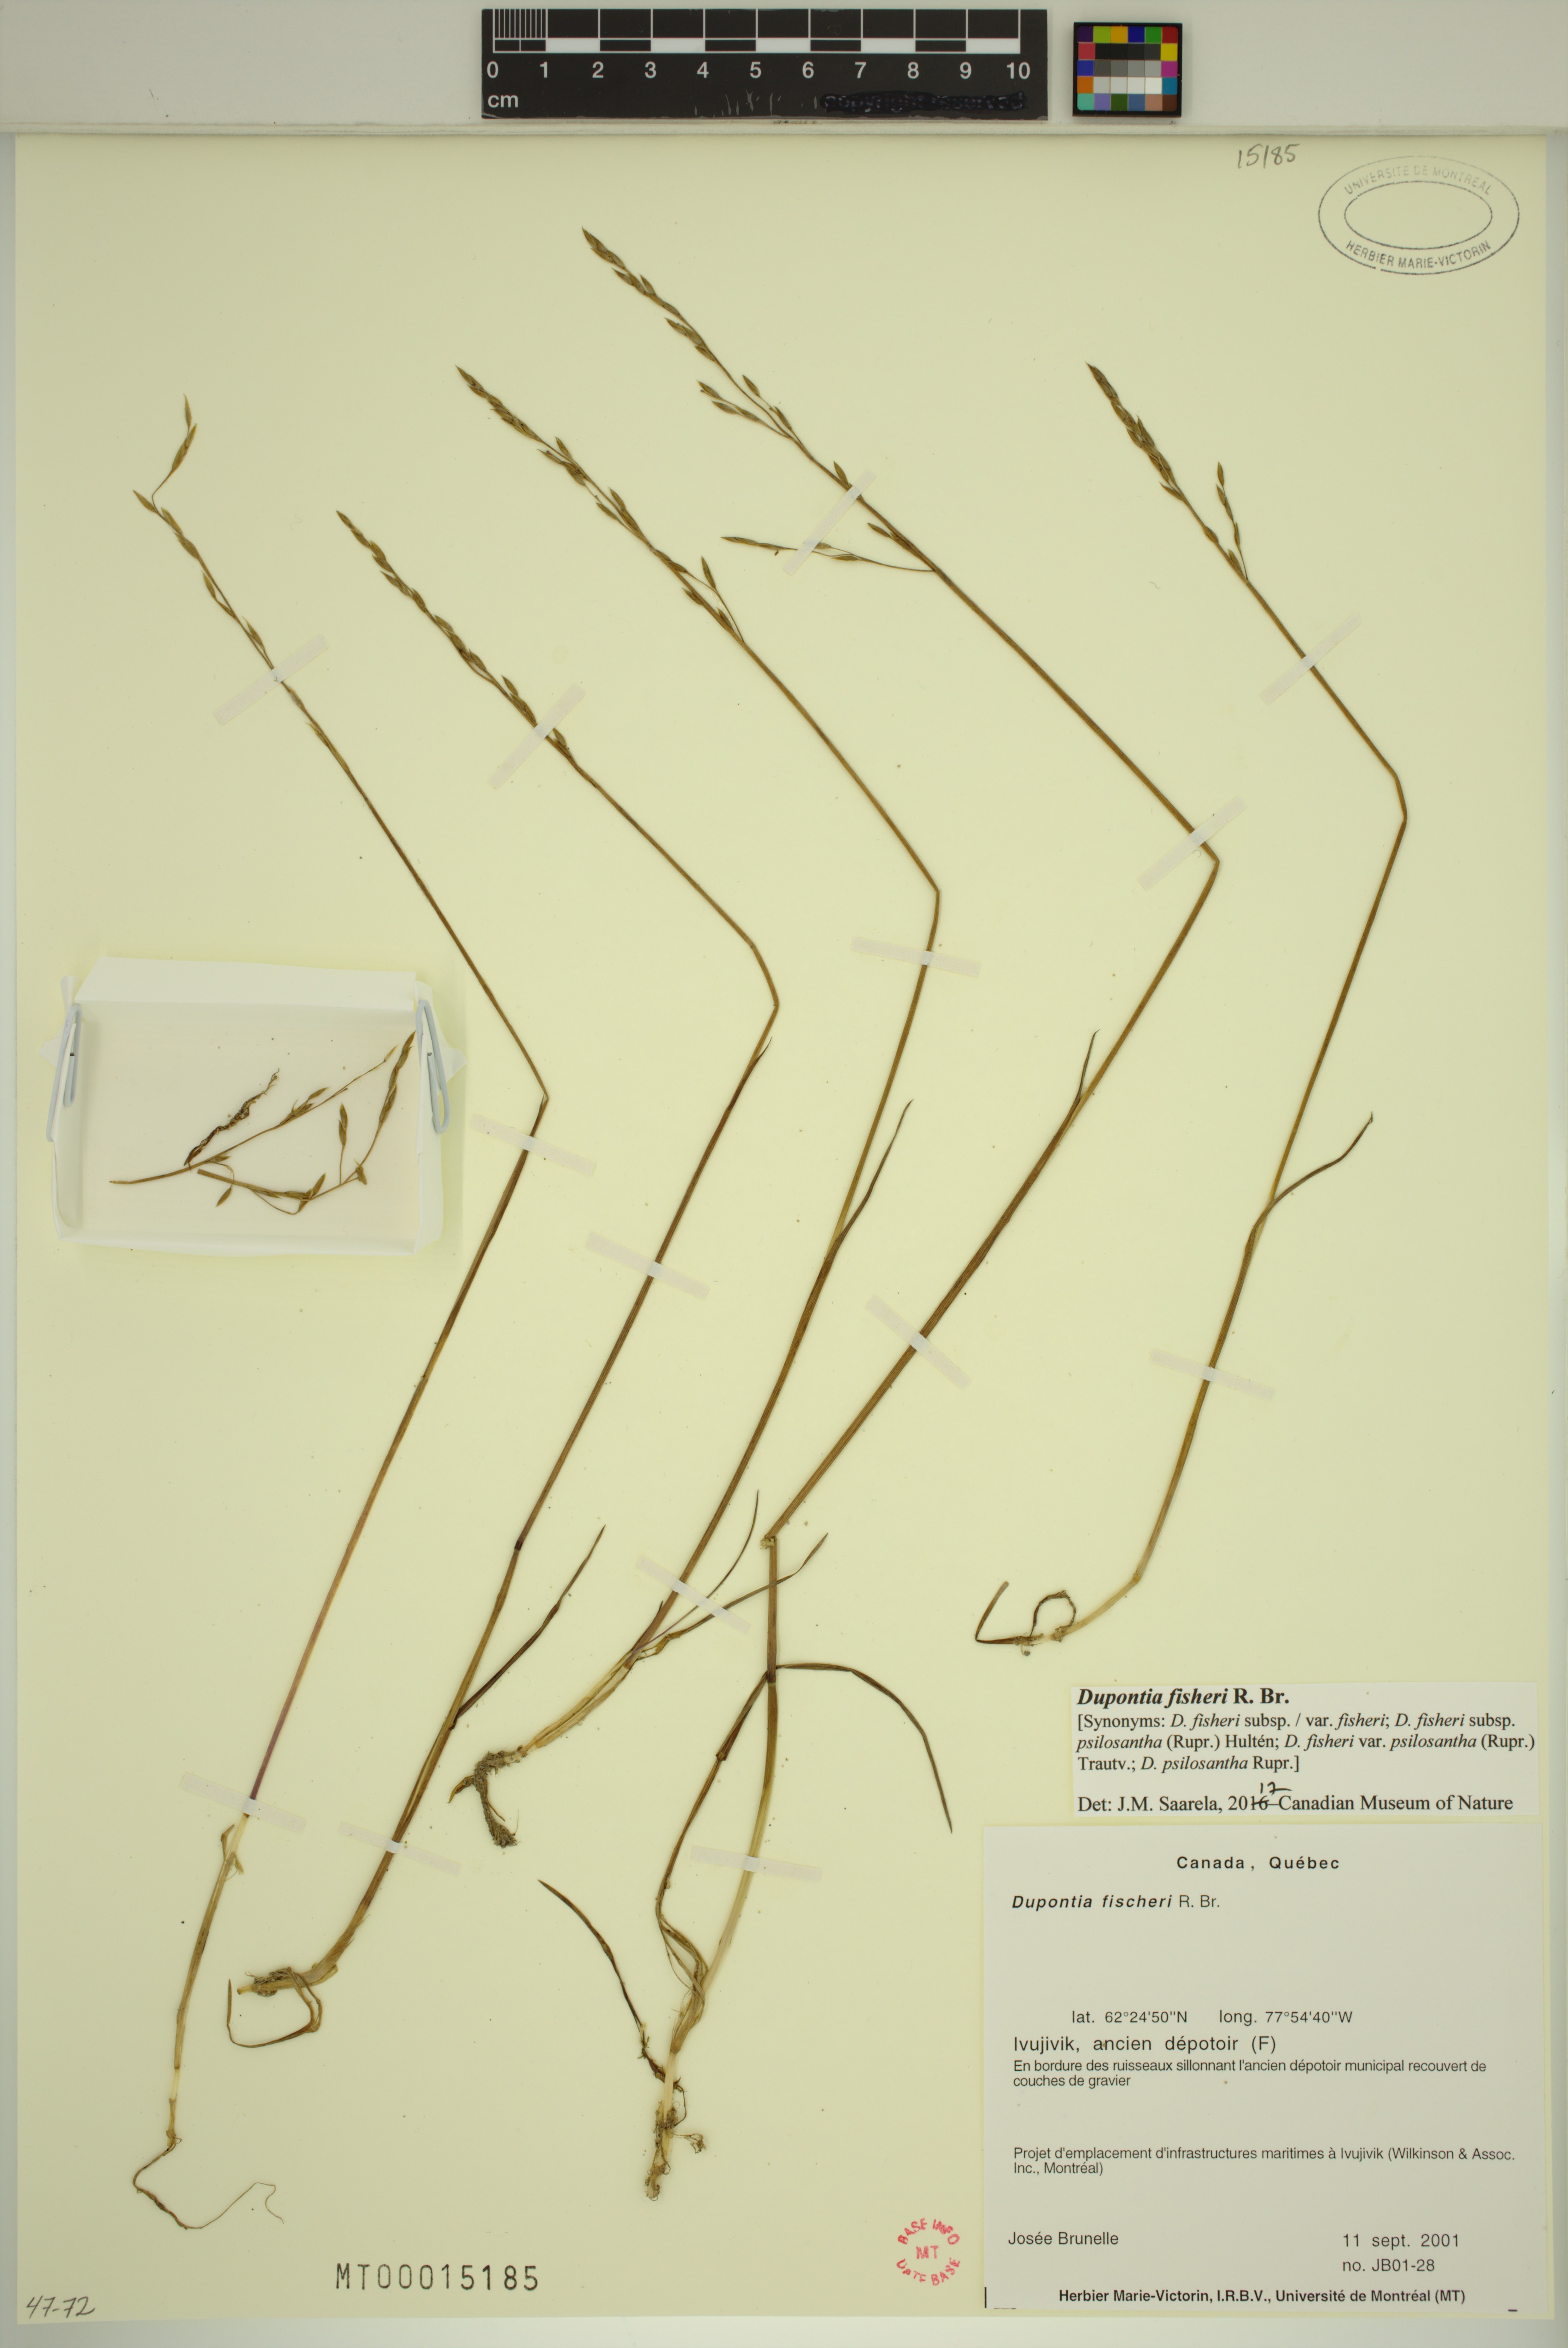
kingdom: Plantae
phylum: Tracheophyta
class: Liliopsida
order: Poales
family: Poaceae
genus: Dupontia
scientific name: Dupontia fisheri
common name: Tundra grass
